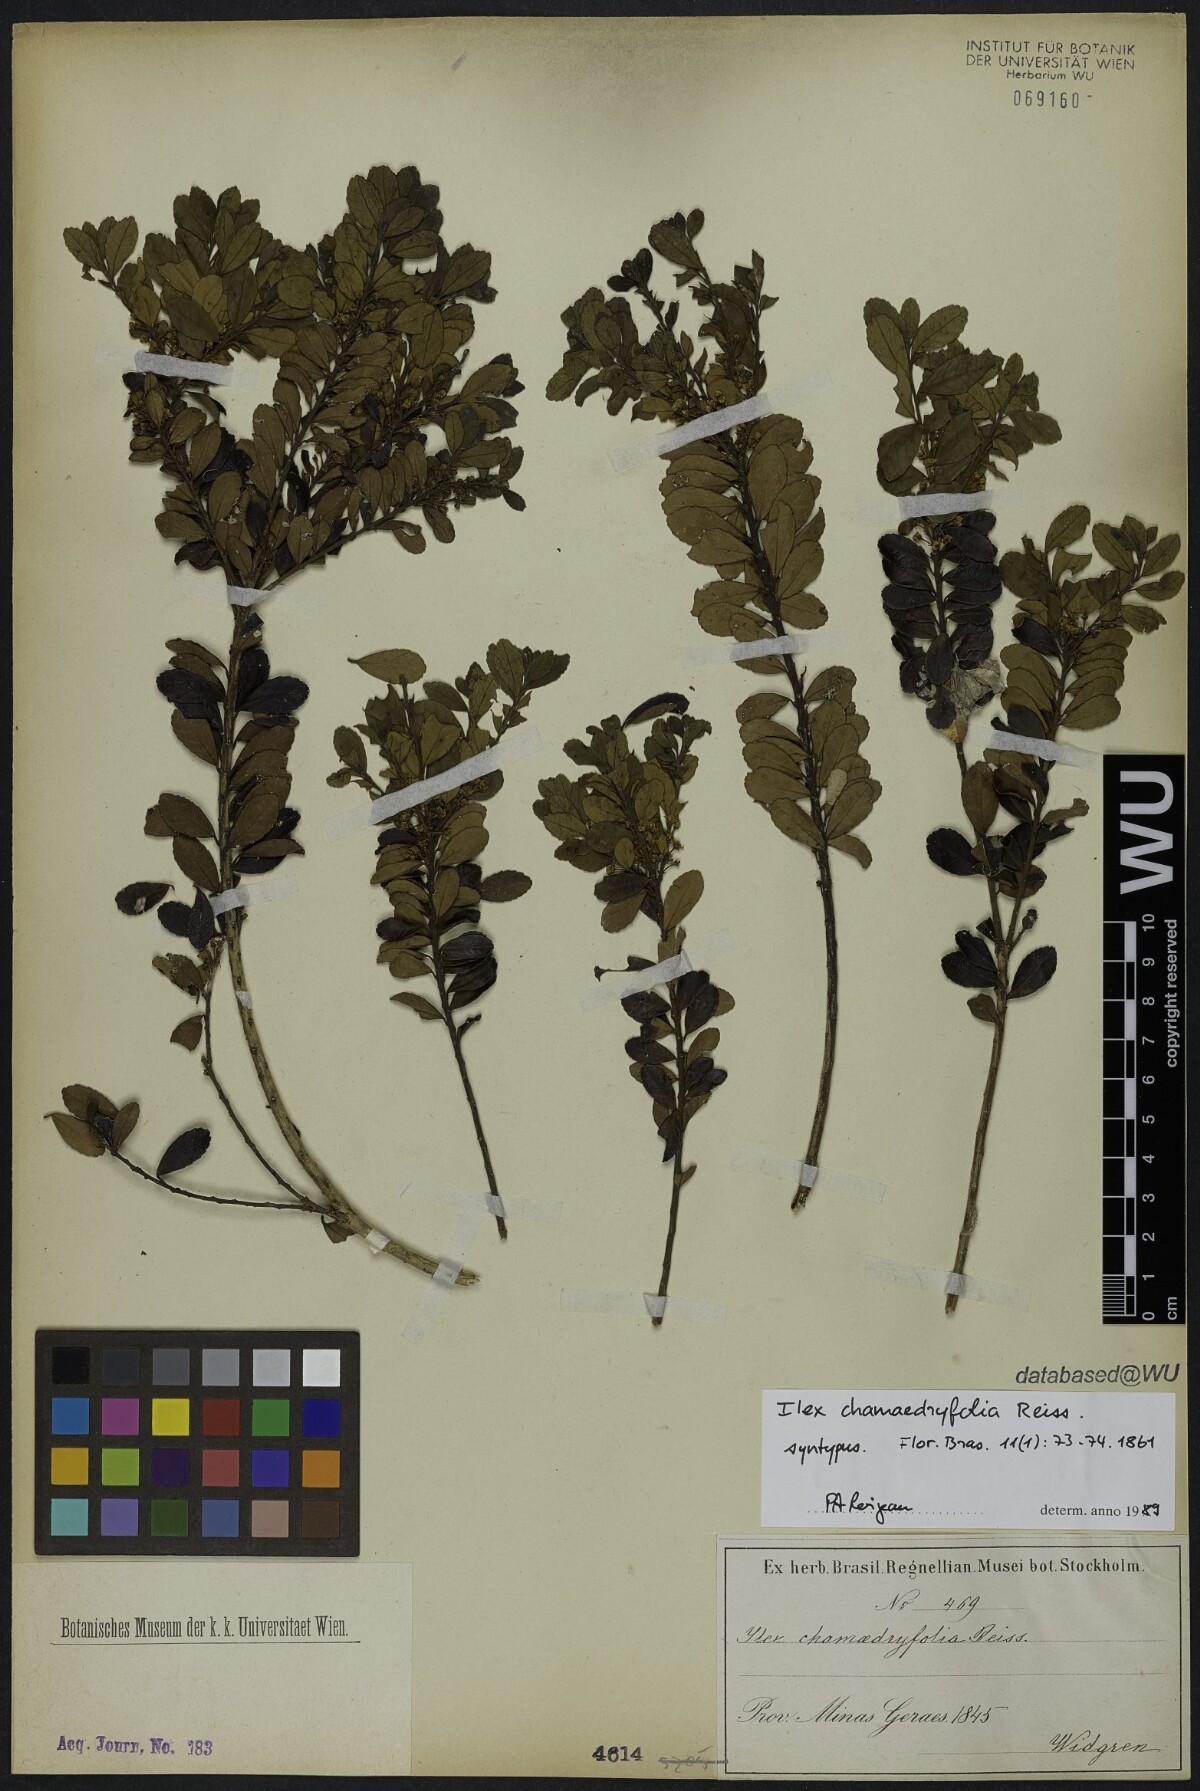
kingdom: Plantae
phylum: Tracheophyta
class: Magnoliopsida
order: Aquifoliales
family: Aquifoliaceae
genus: Ilex
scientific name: Ilex chamaedryfolia
